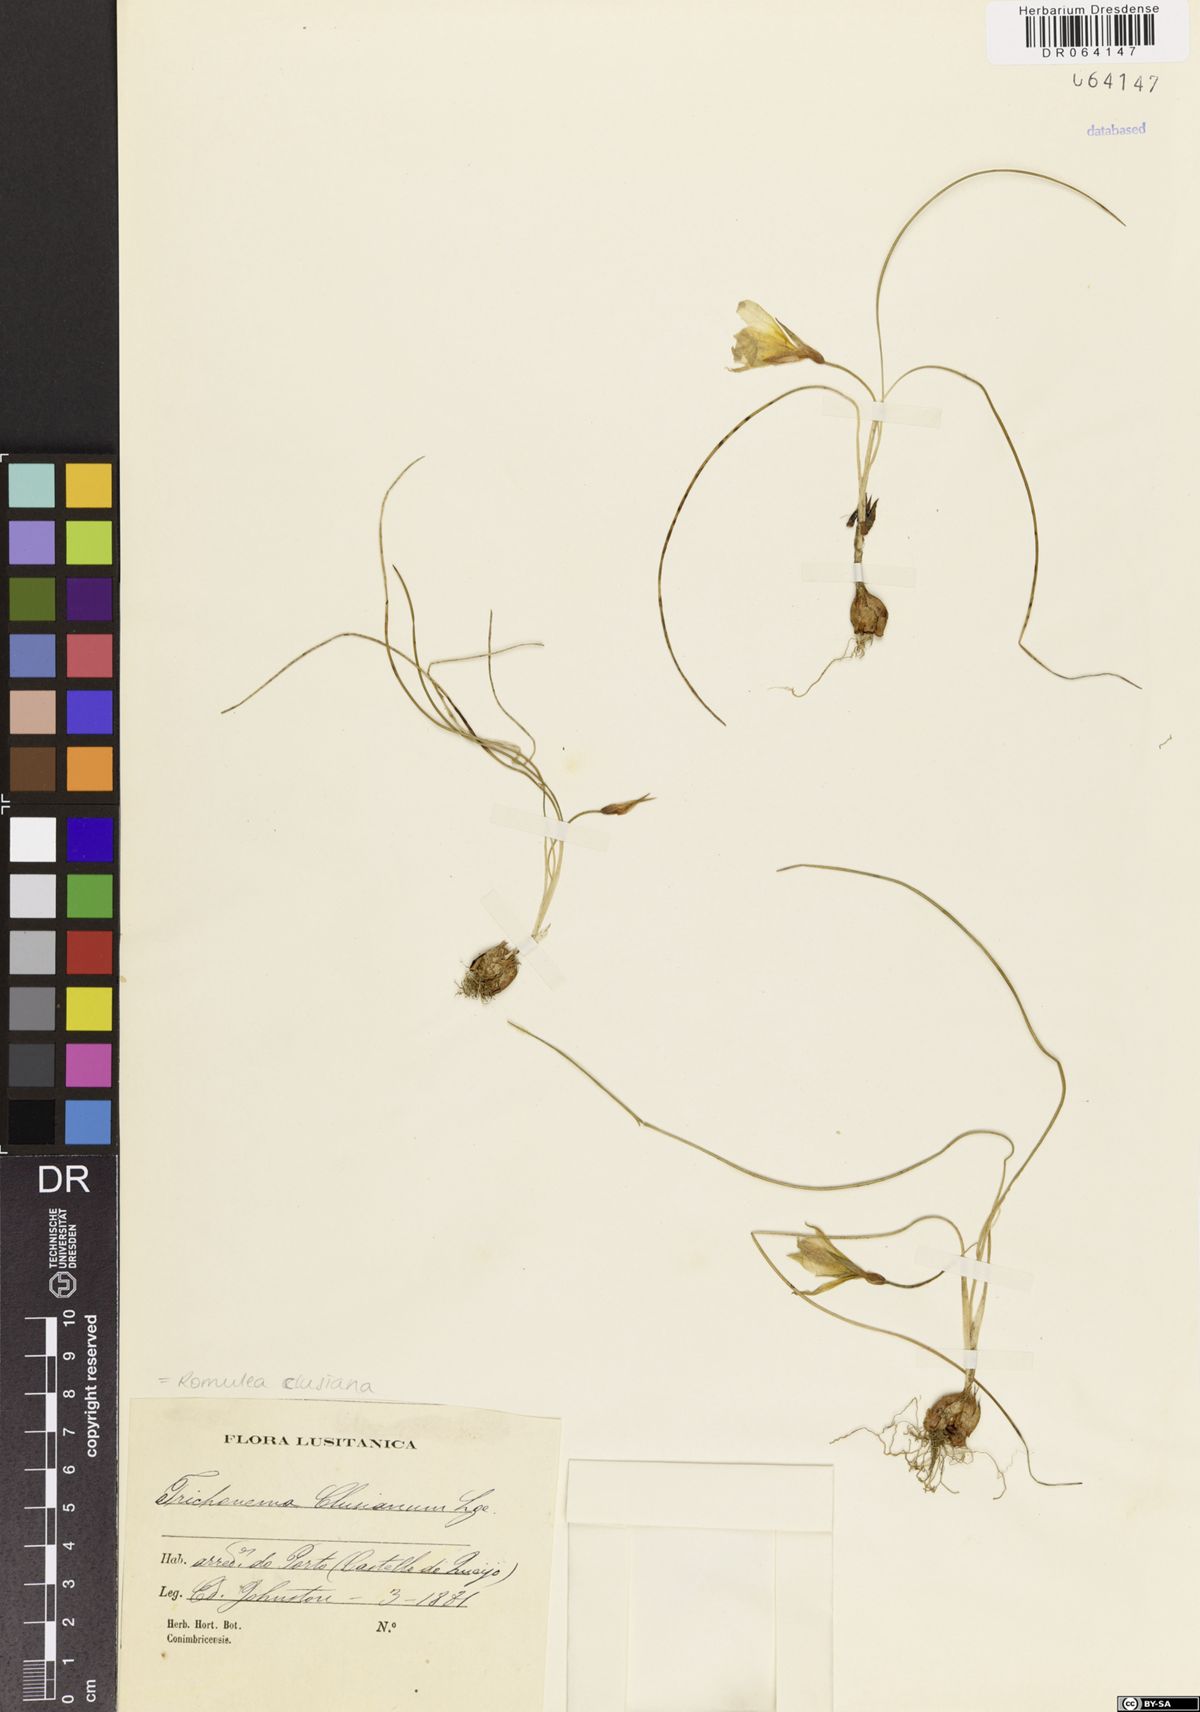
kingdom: Plantae
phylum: Tracheophyta
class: Liliopsida
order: Asparagales
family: Iridaceae
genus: Romulea
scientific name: Romulea clusiana
